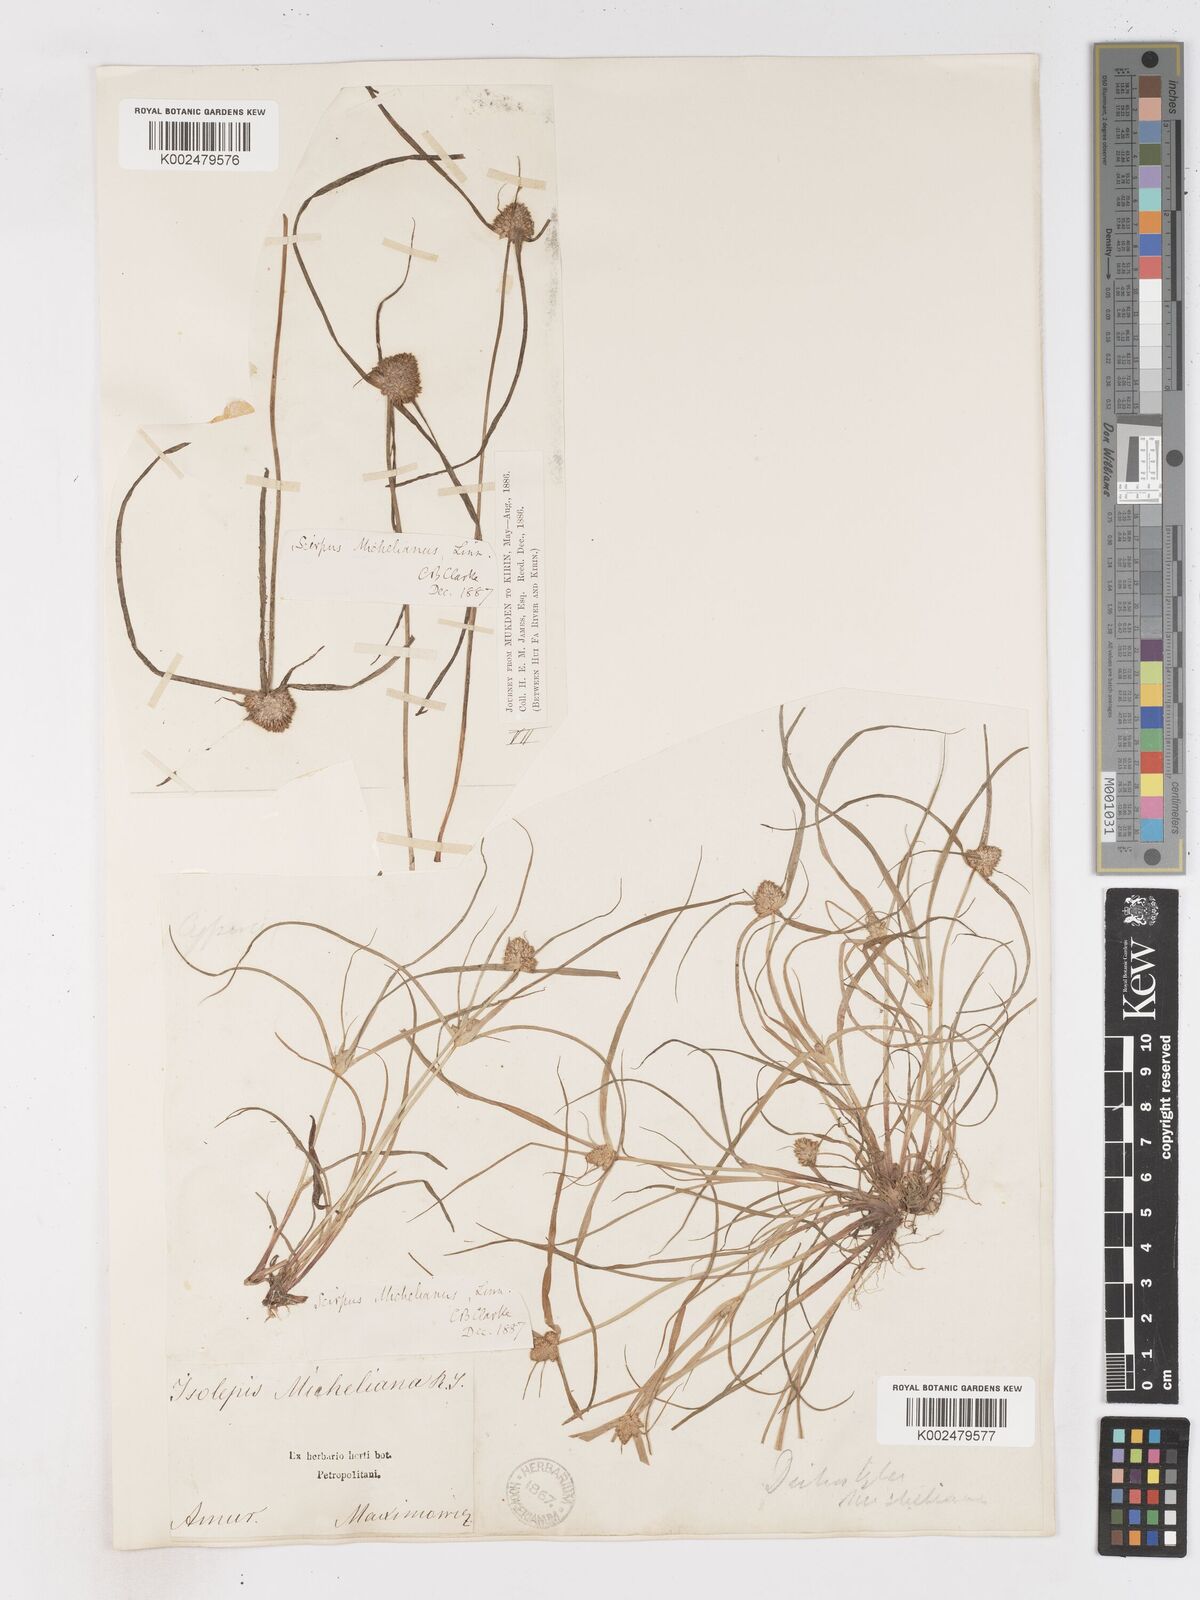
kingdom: Plantae
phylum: Tracheophyta
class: Liliopsida
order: Poales
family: Cyperaceae
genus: Cyperus
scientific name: Cyperus michelianus
